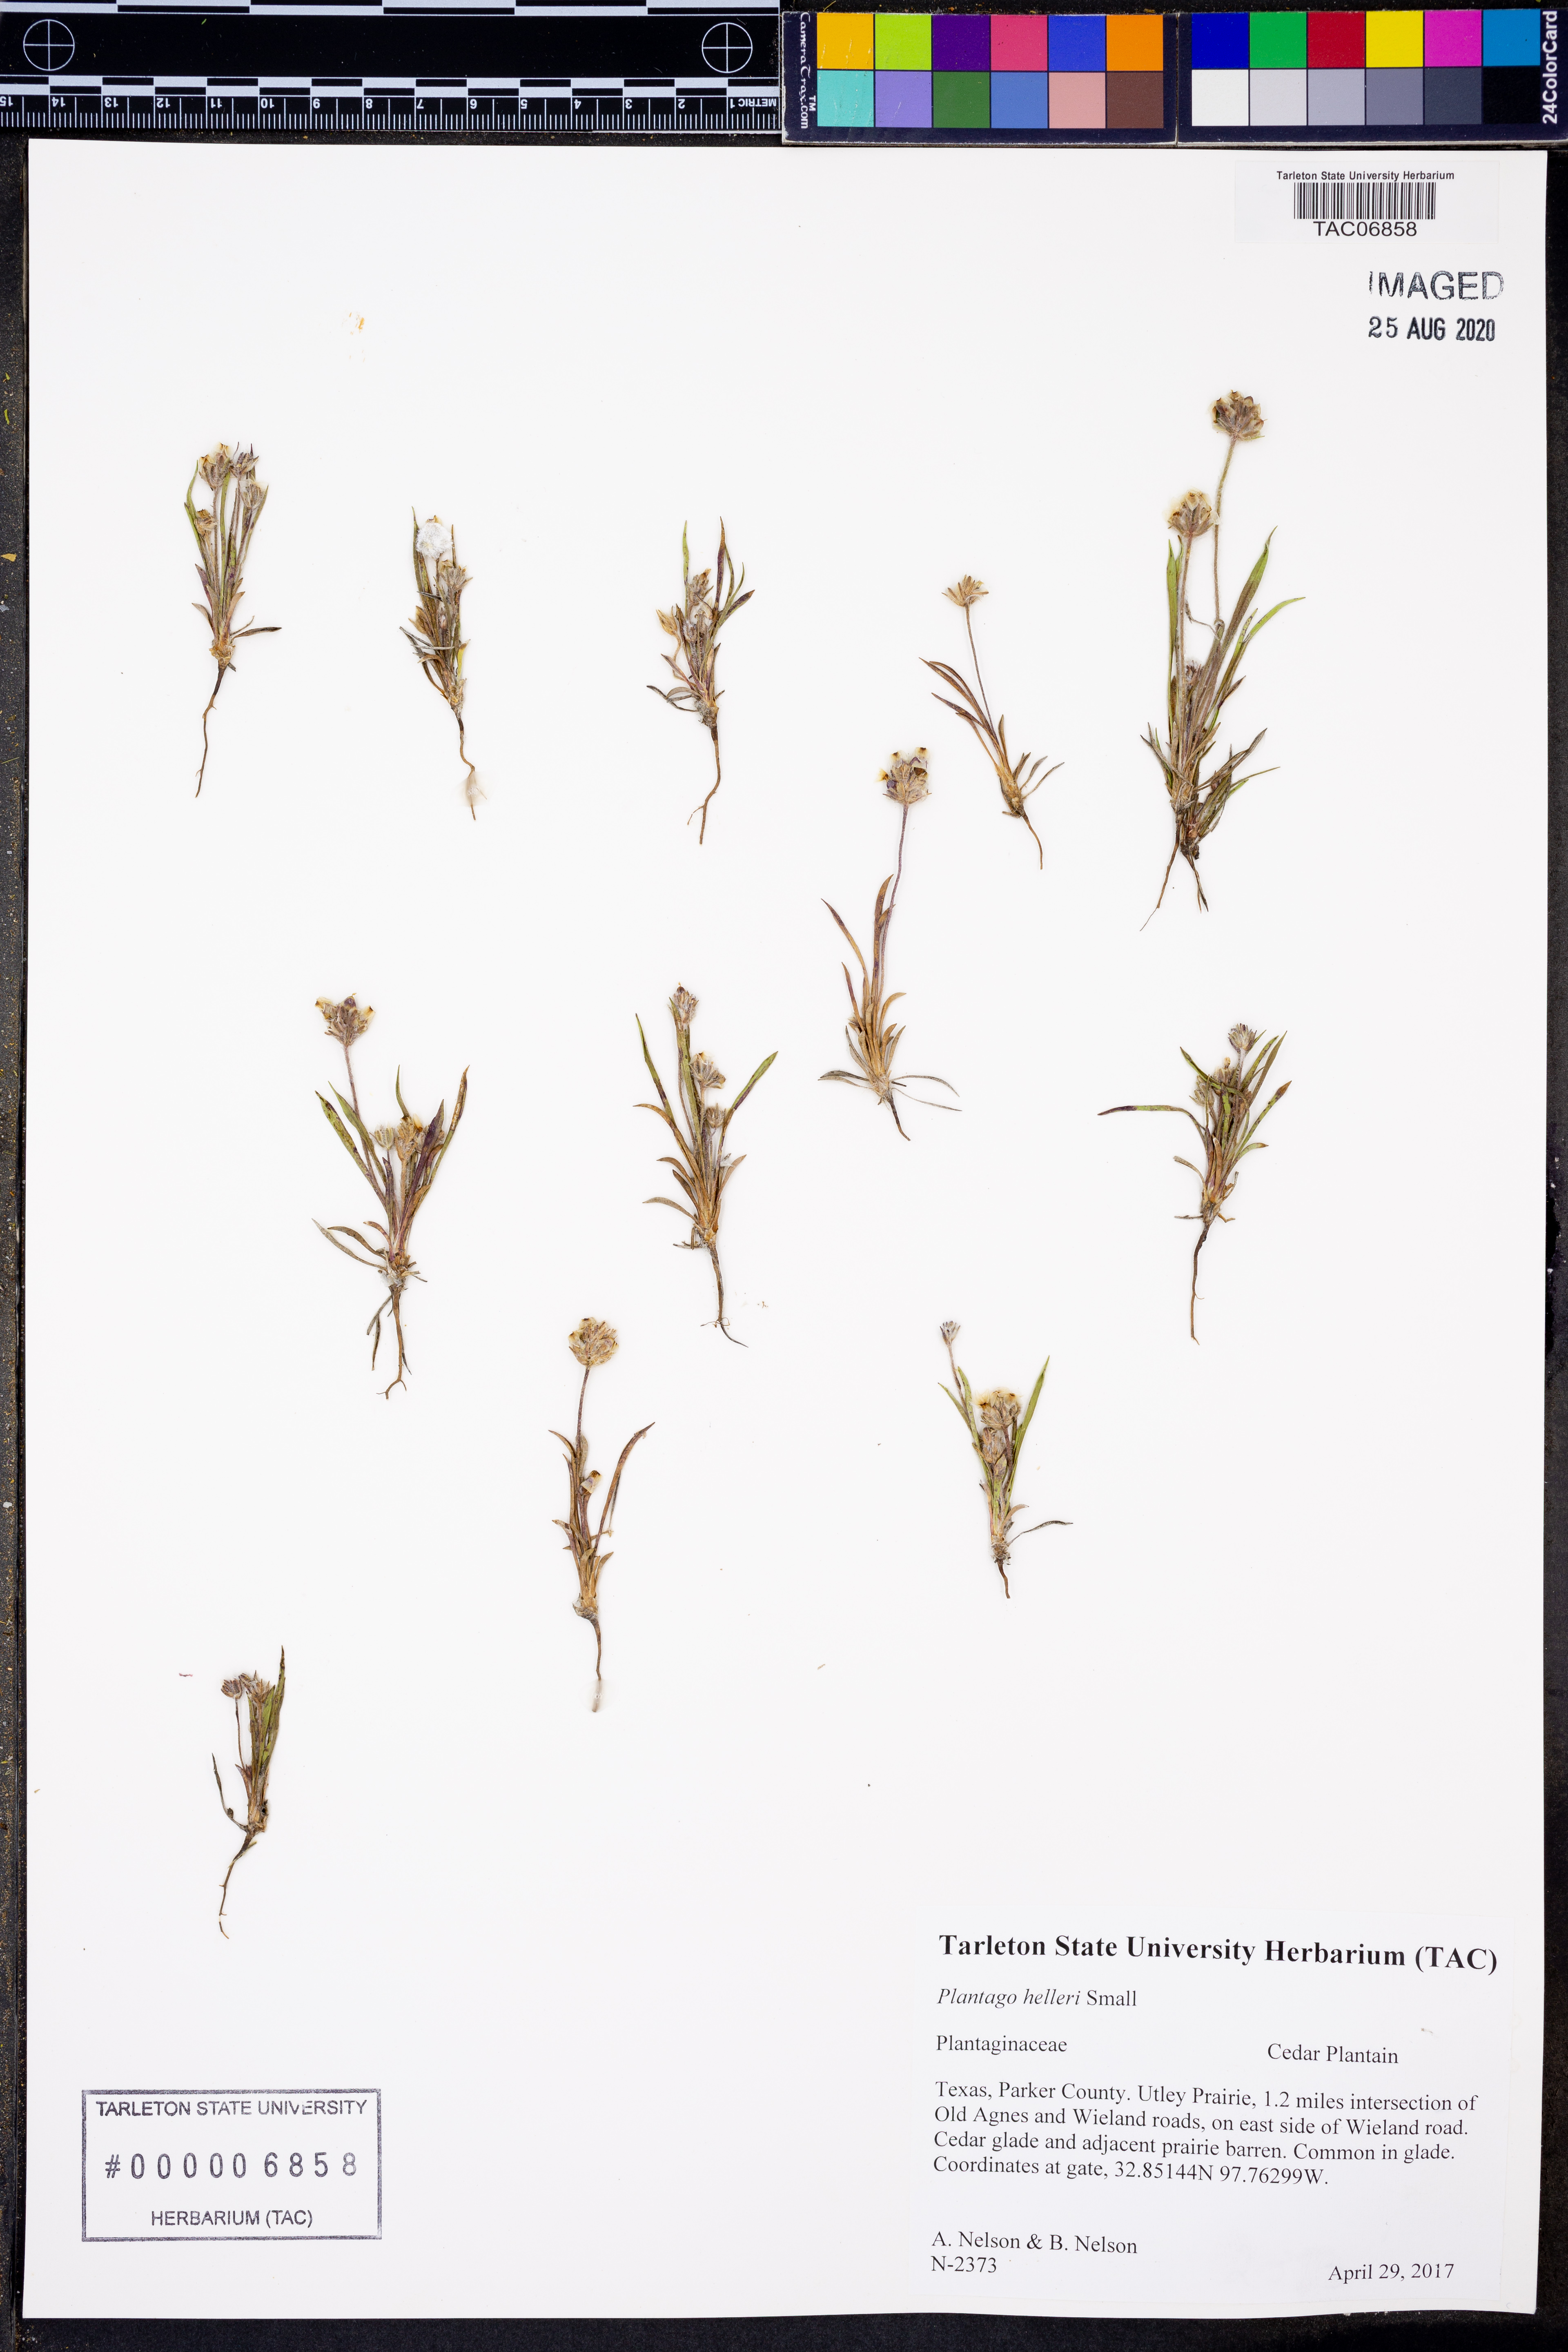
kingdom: Plantae
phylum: Tracheophyta
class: Magnoliopsida
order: Lamiales
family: Plantaginaceae
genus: Plantago
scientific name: Plantago helleri
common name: Heller's plantain
